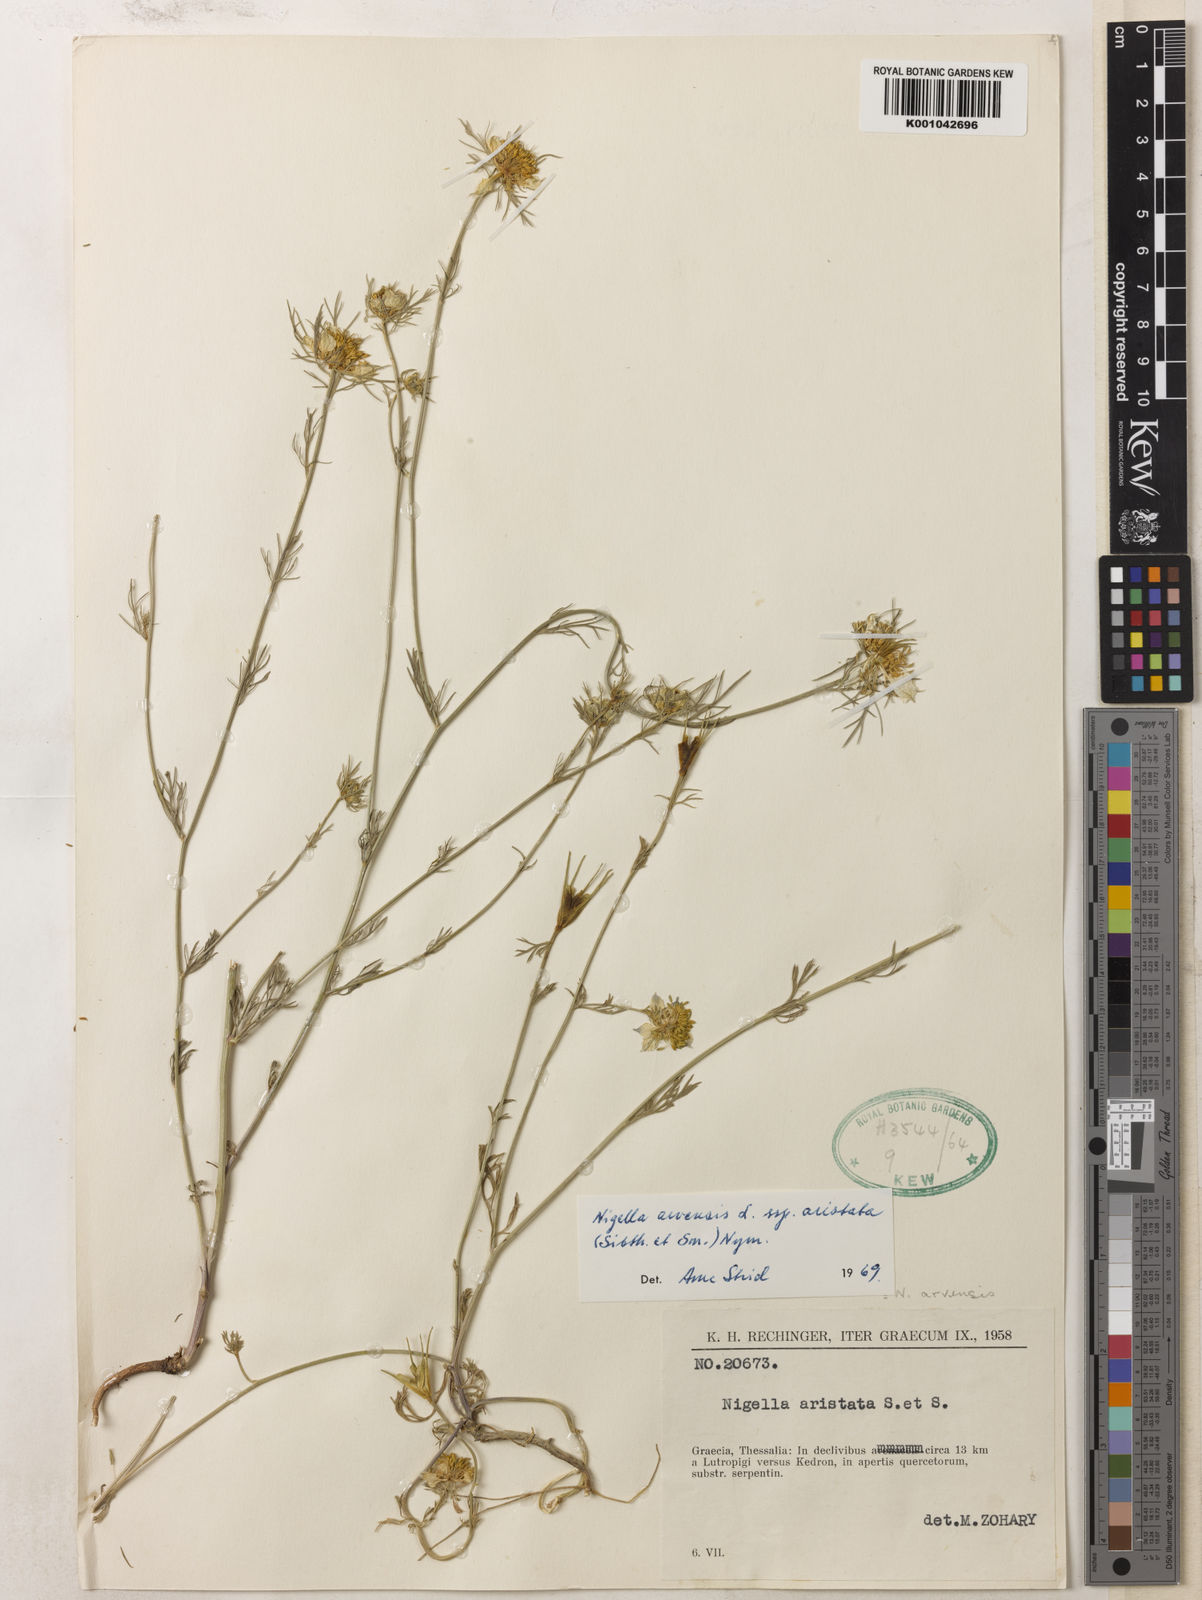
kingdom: Plantae
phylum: Tracheophyta
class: Magnoliopsida
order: Ranunculales
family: Ranunculaceae
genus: Nigella
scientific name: Nigella arvensis
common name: Wild fennel-flower
